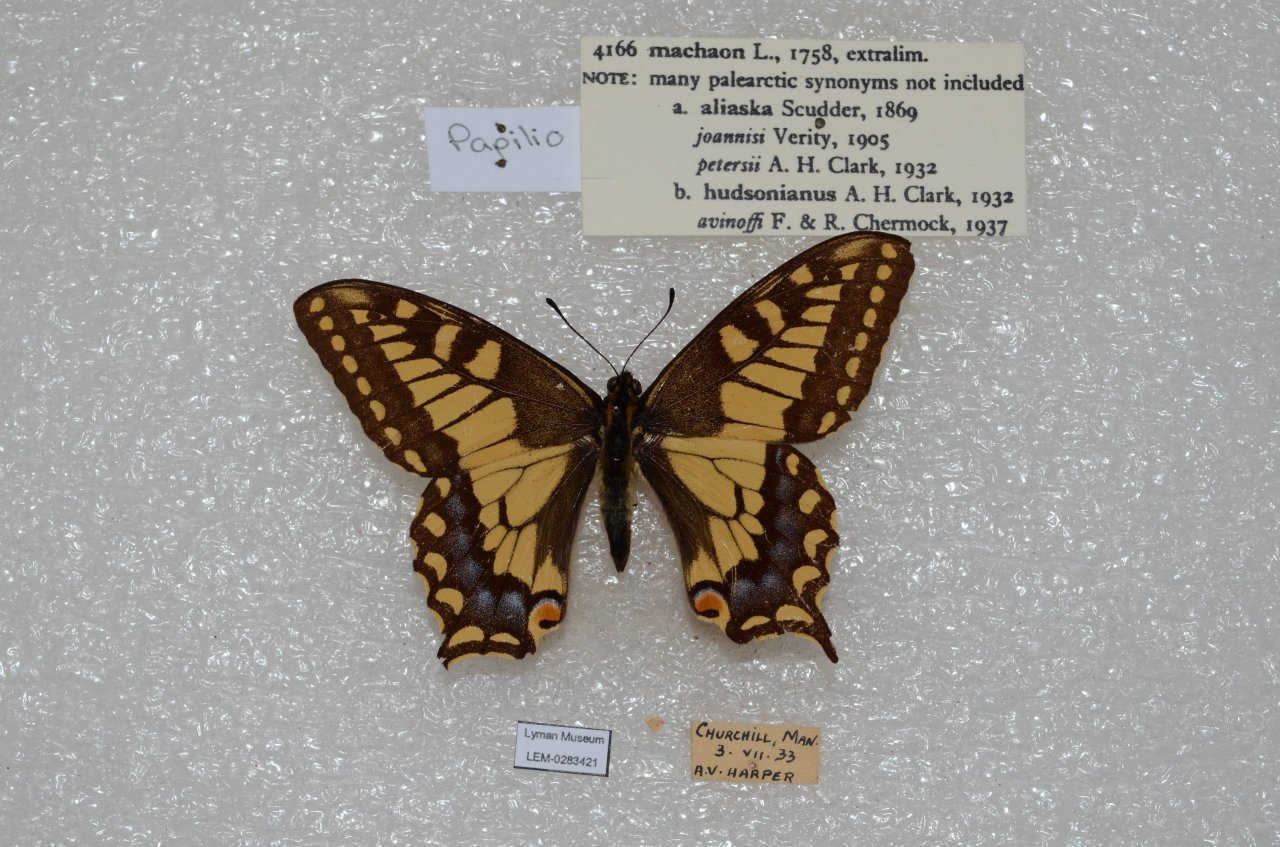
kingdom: Animalia
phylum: Arthropoda
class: Insecta
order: Lepidoptera
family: Papilionidae
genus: Papilio
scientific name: Papilio machaon
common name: Old World Swallowtail
